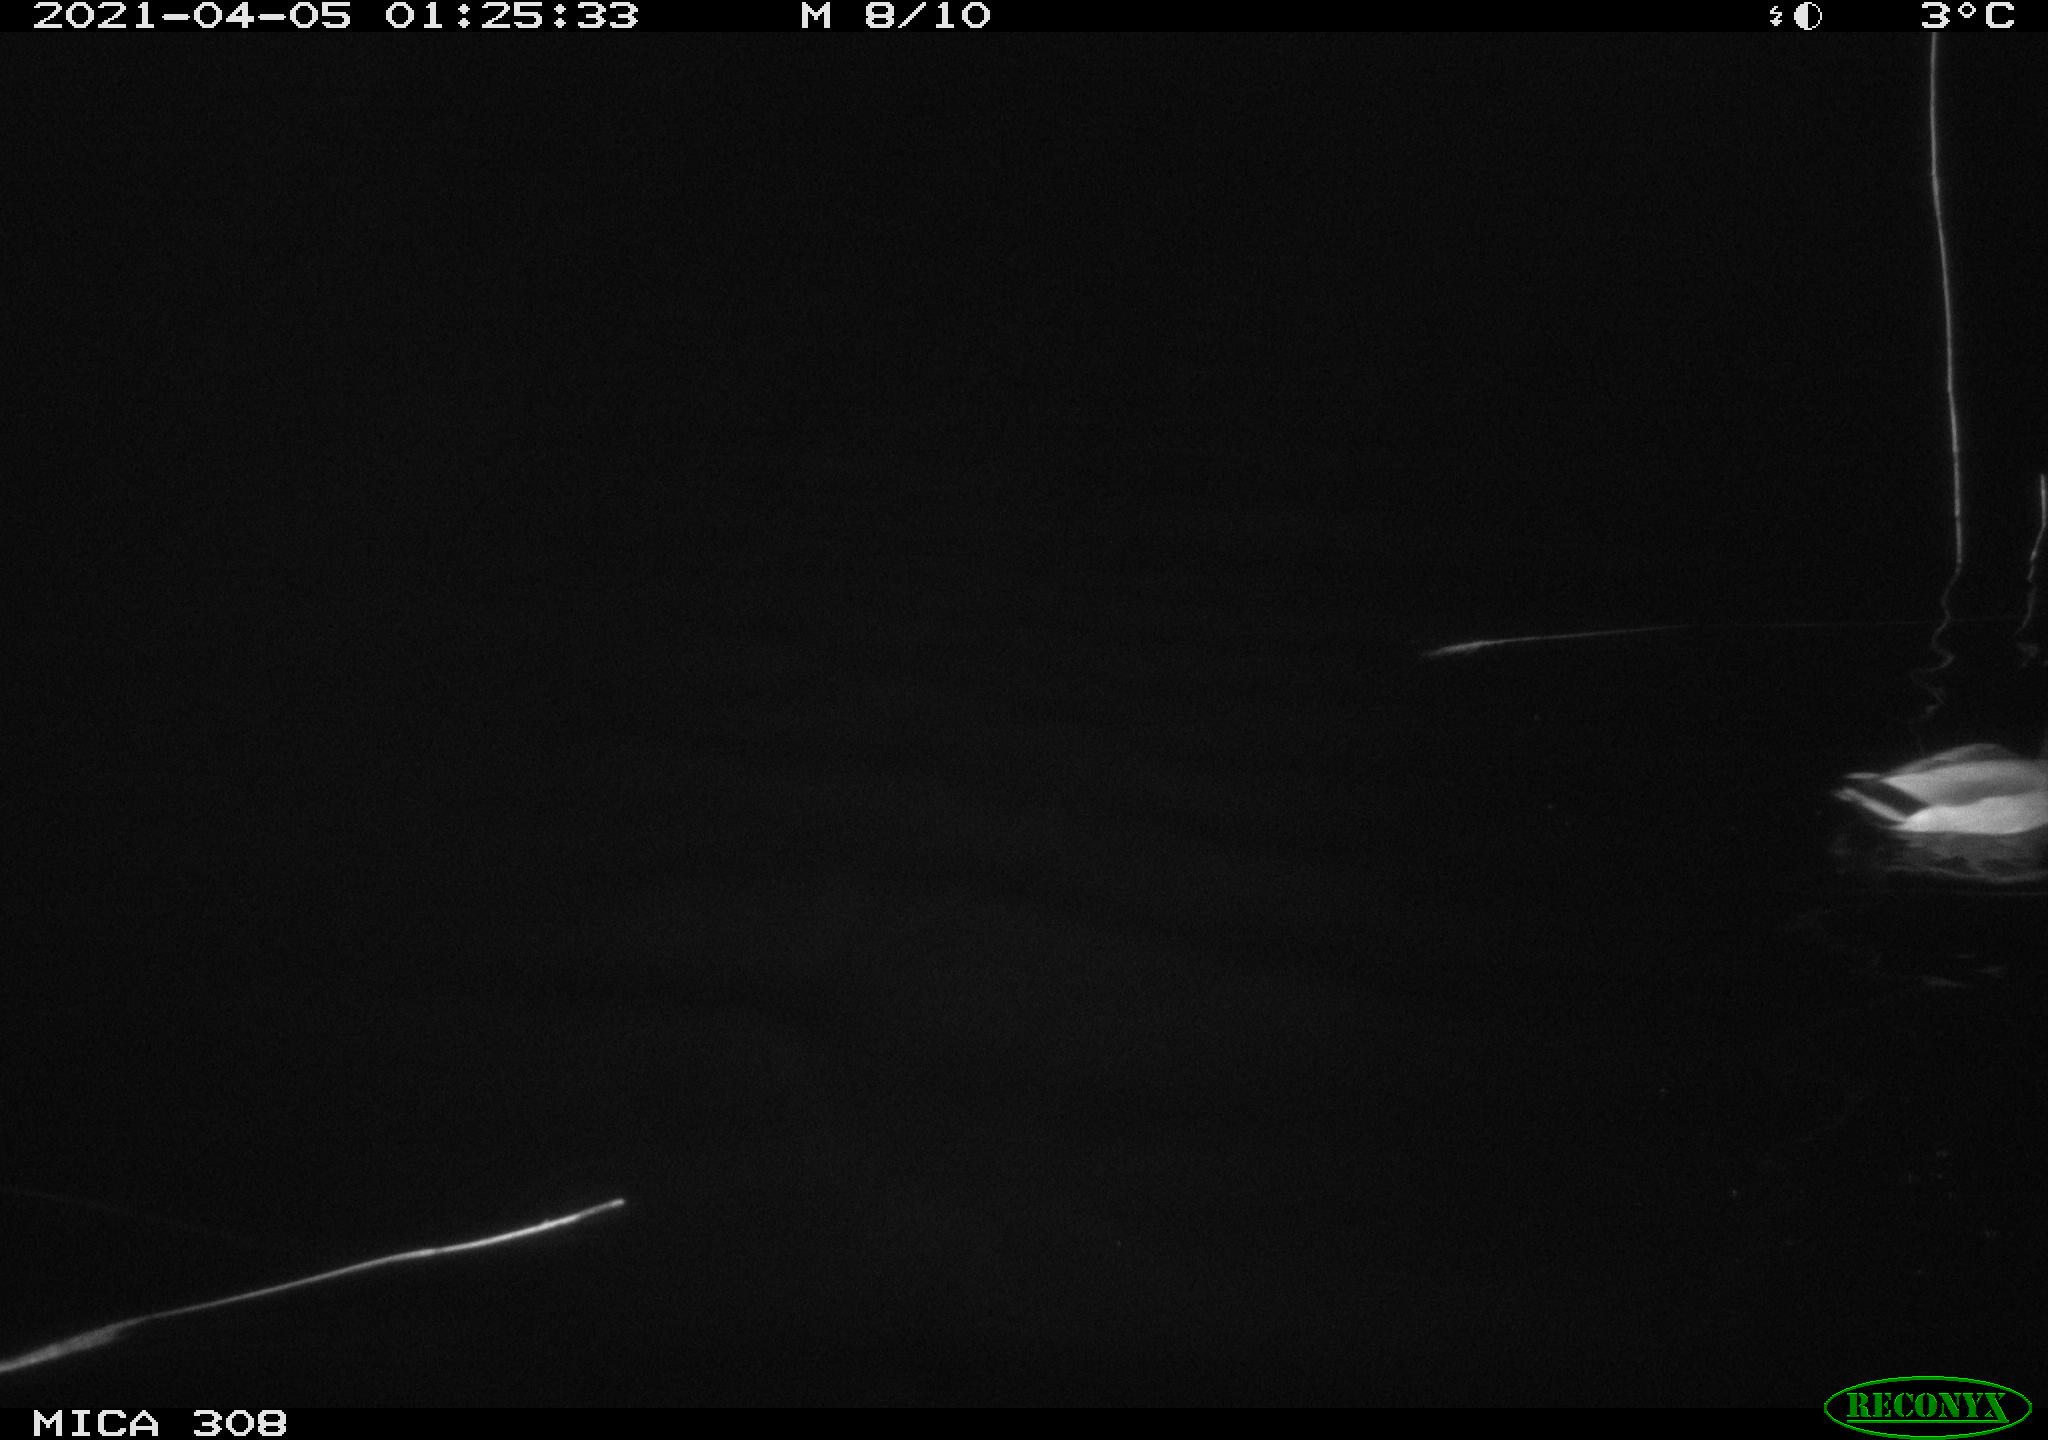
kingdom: Animalia
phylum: Chordata
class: Aves
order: Anseriformes
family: Anatidae
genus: Anas
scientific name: Anas platyrhynchos
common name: Mallard
